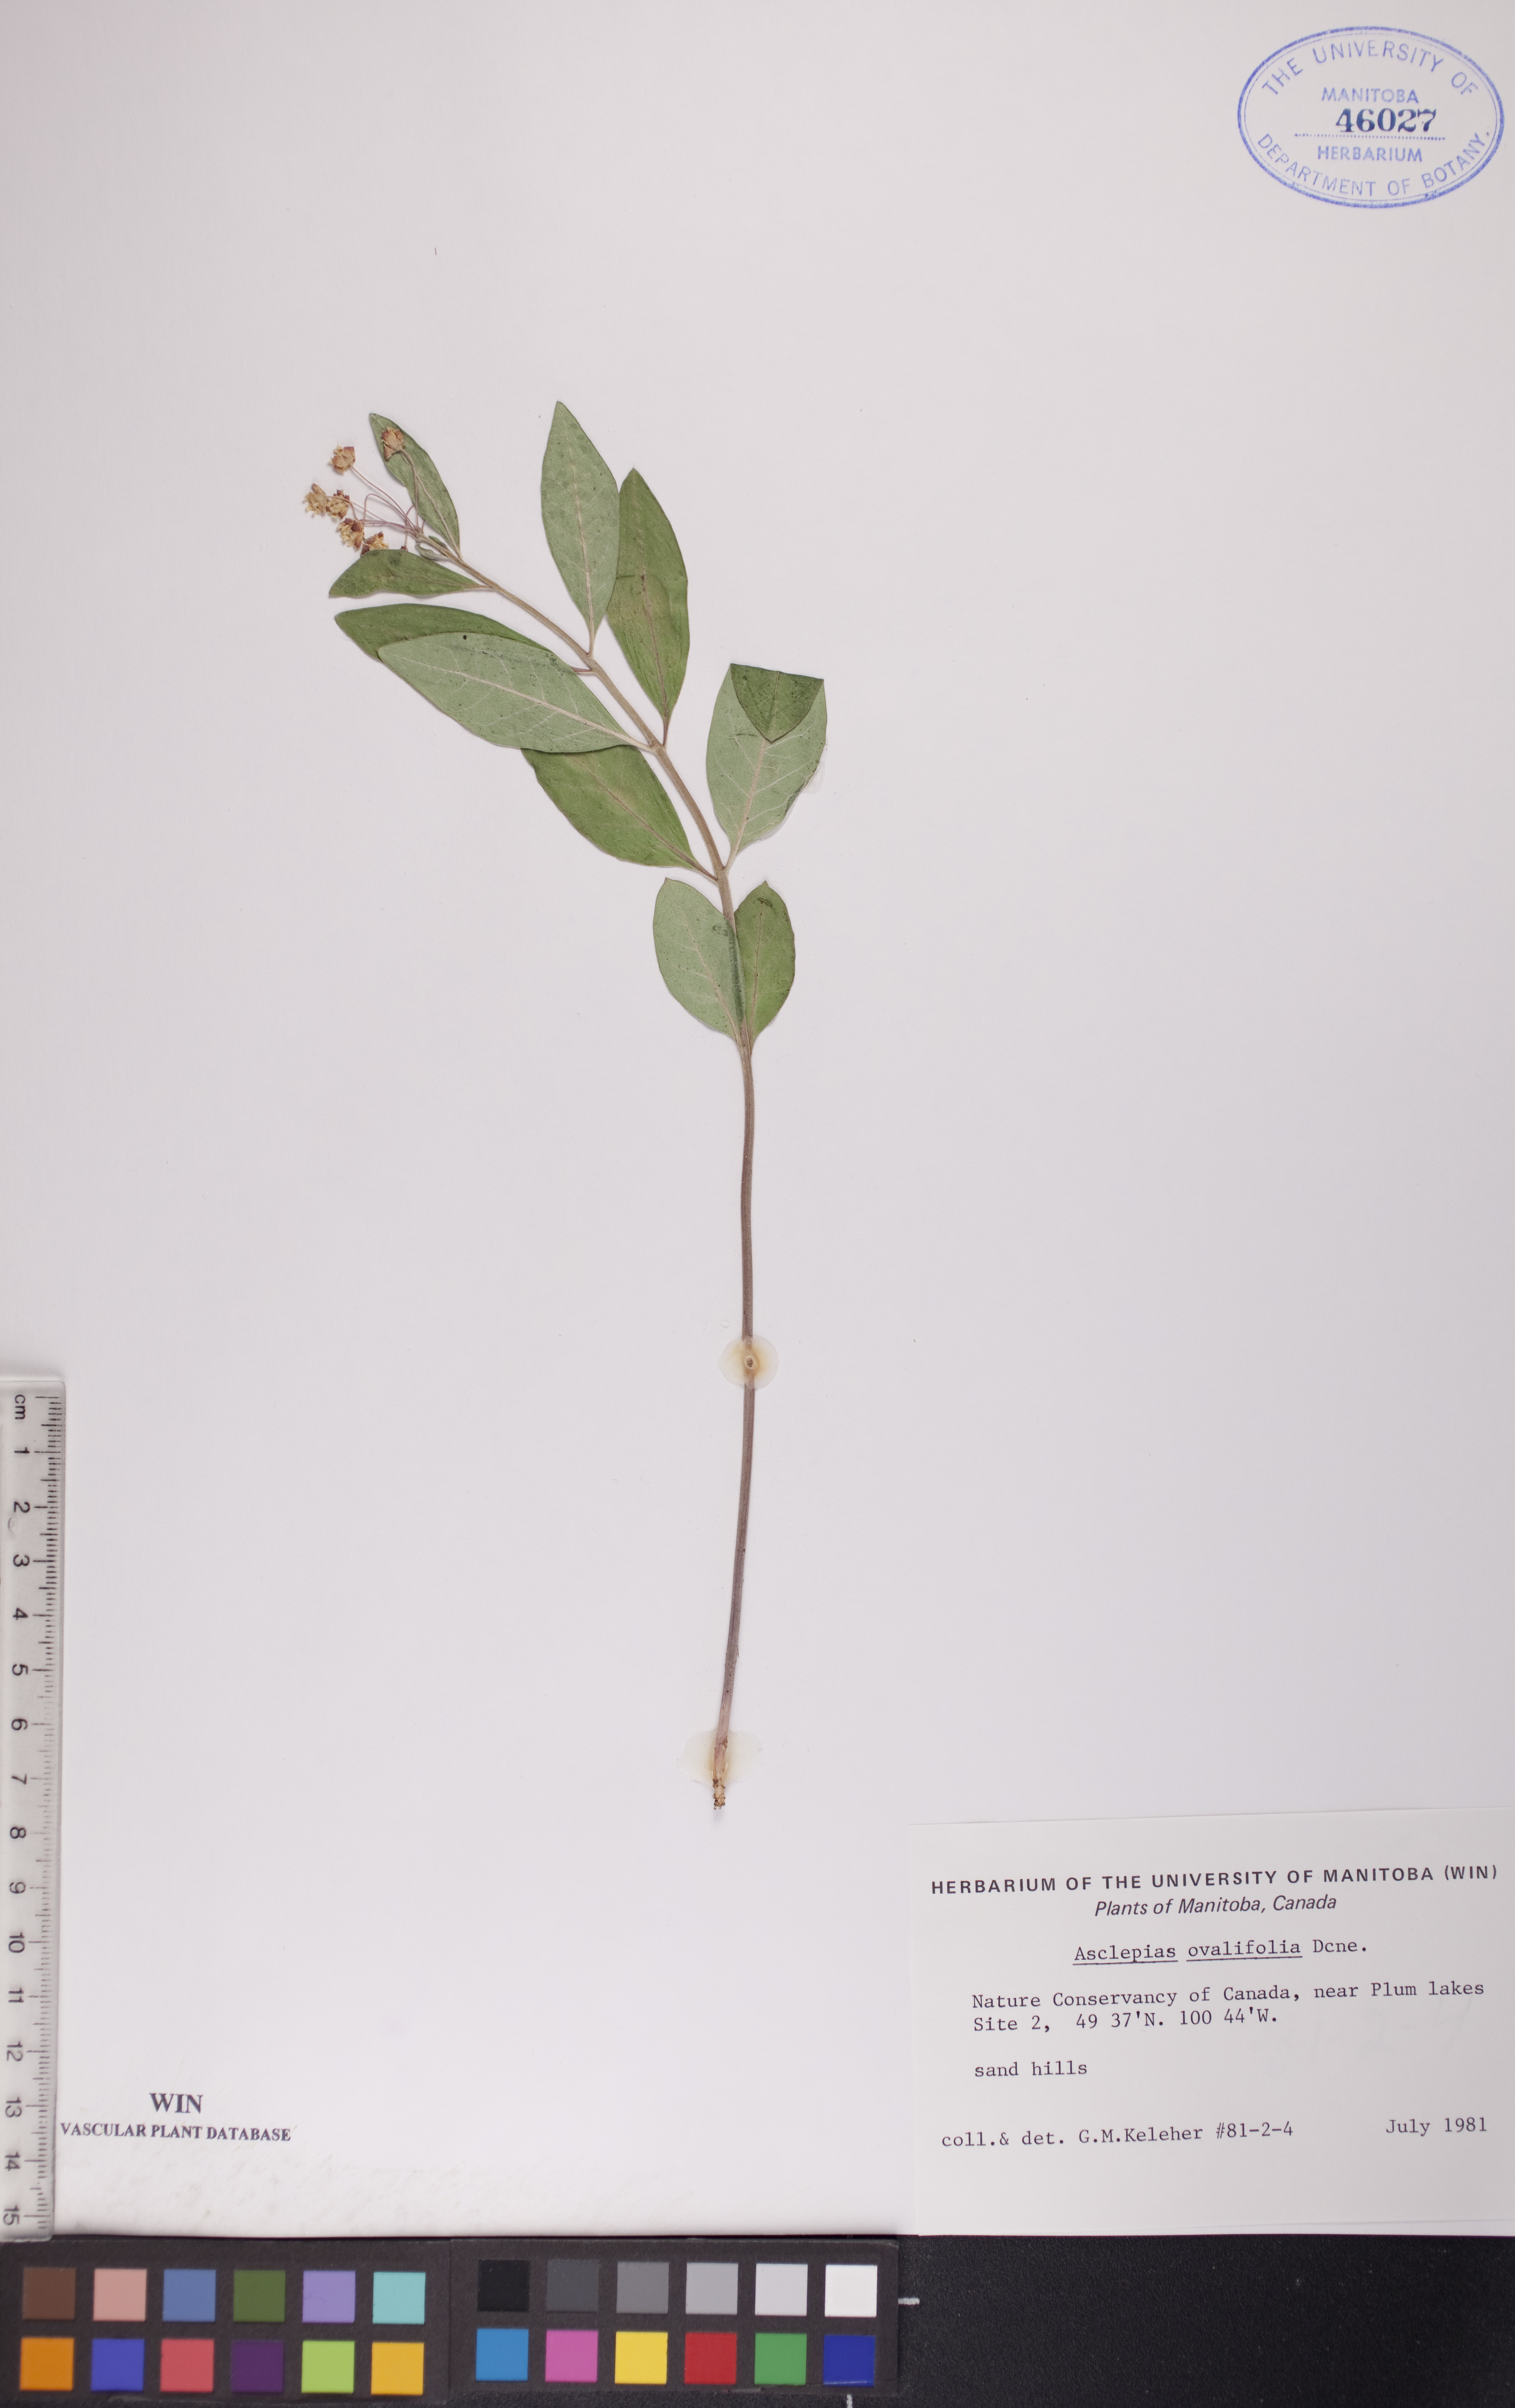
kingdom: Plantae
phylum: Tracheophyta
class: Magnoliopsida
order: Gentianales
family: Apocynaceae
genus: Asclepias
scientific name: Asclepias ovalifolia
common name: Dwarf milkweed
